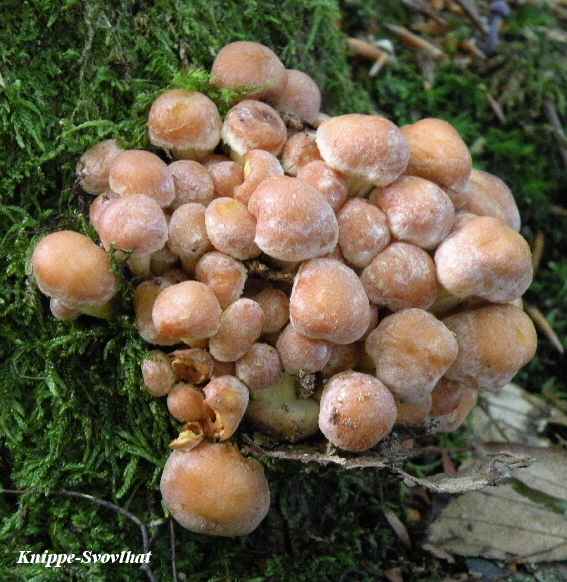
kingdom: Fungi
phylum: Basidiomycota
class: Agaricomycetes
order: Agaricales
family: Strophariaceae
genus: Hypholoma
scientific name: Hypholoma fasciculare
